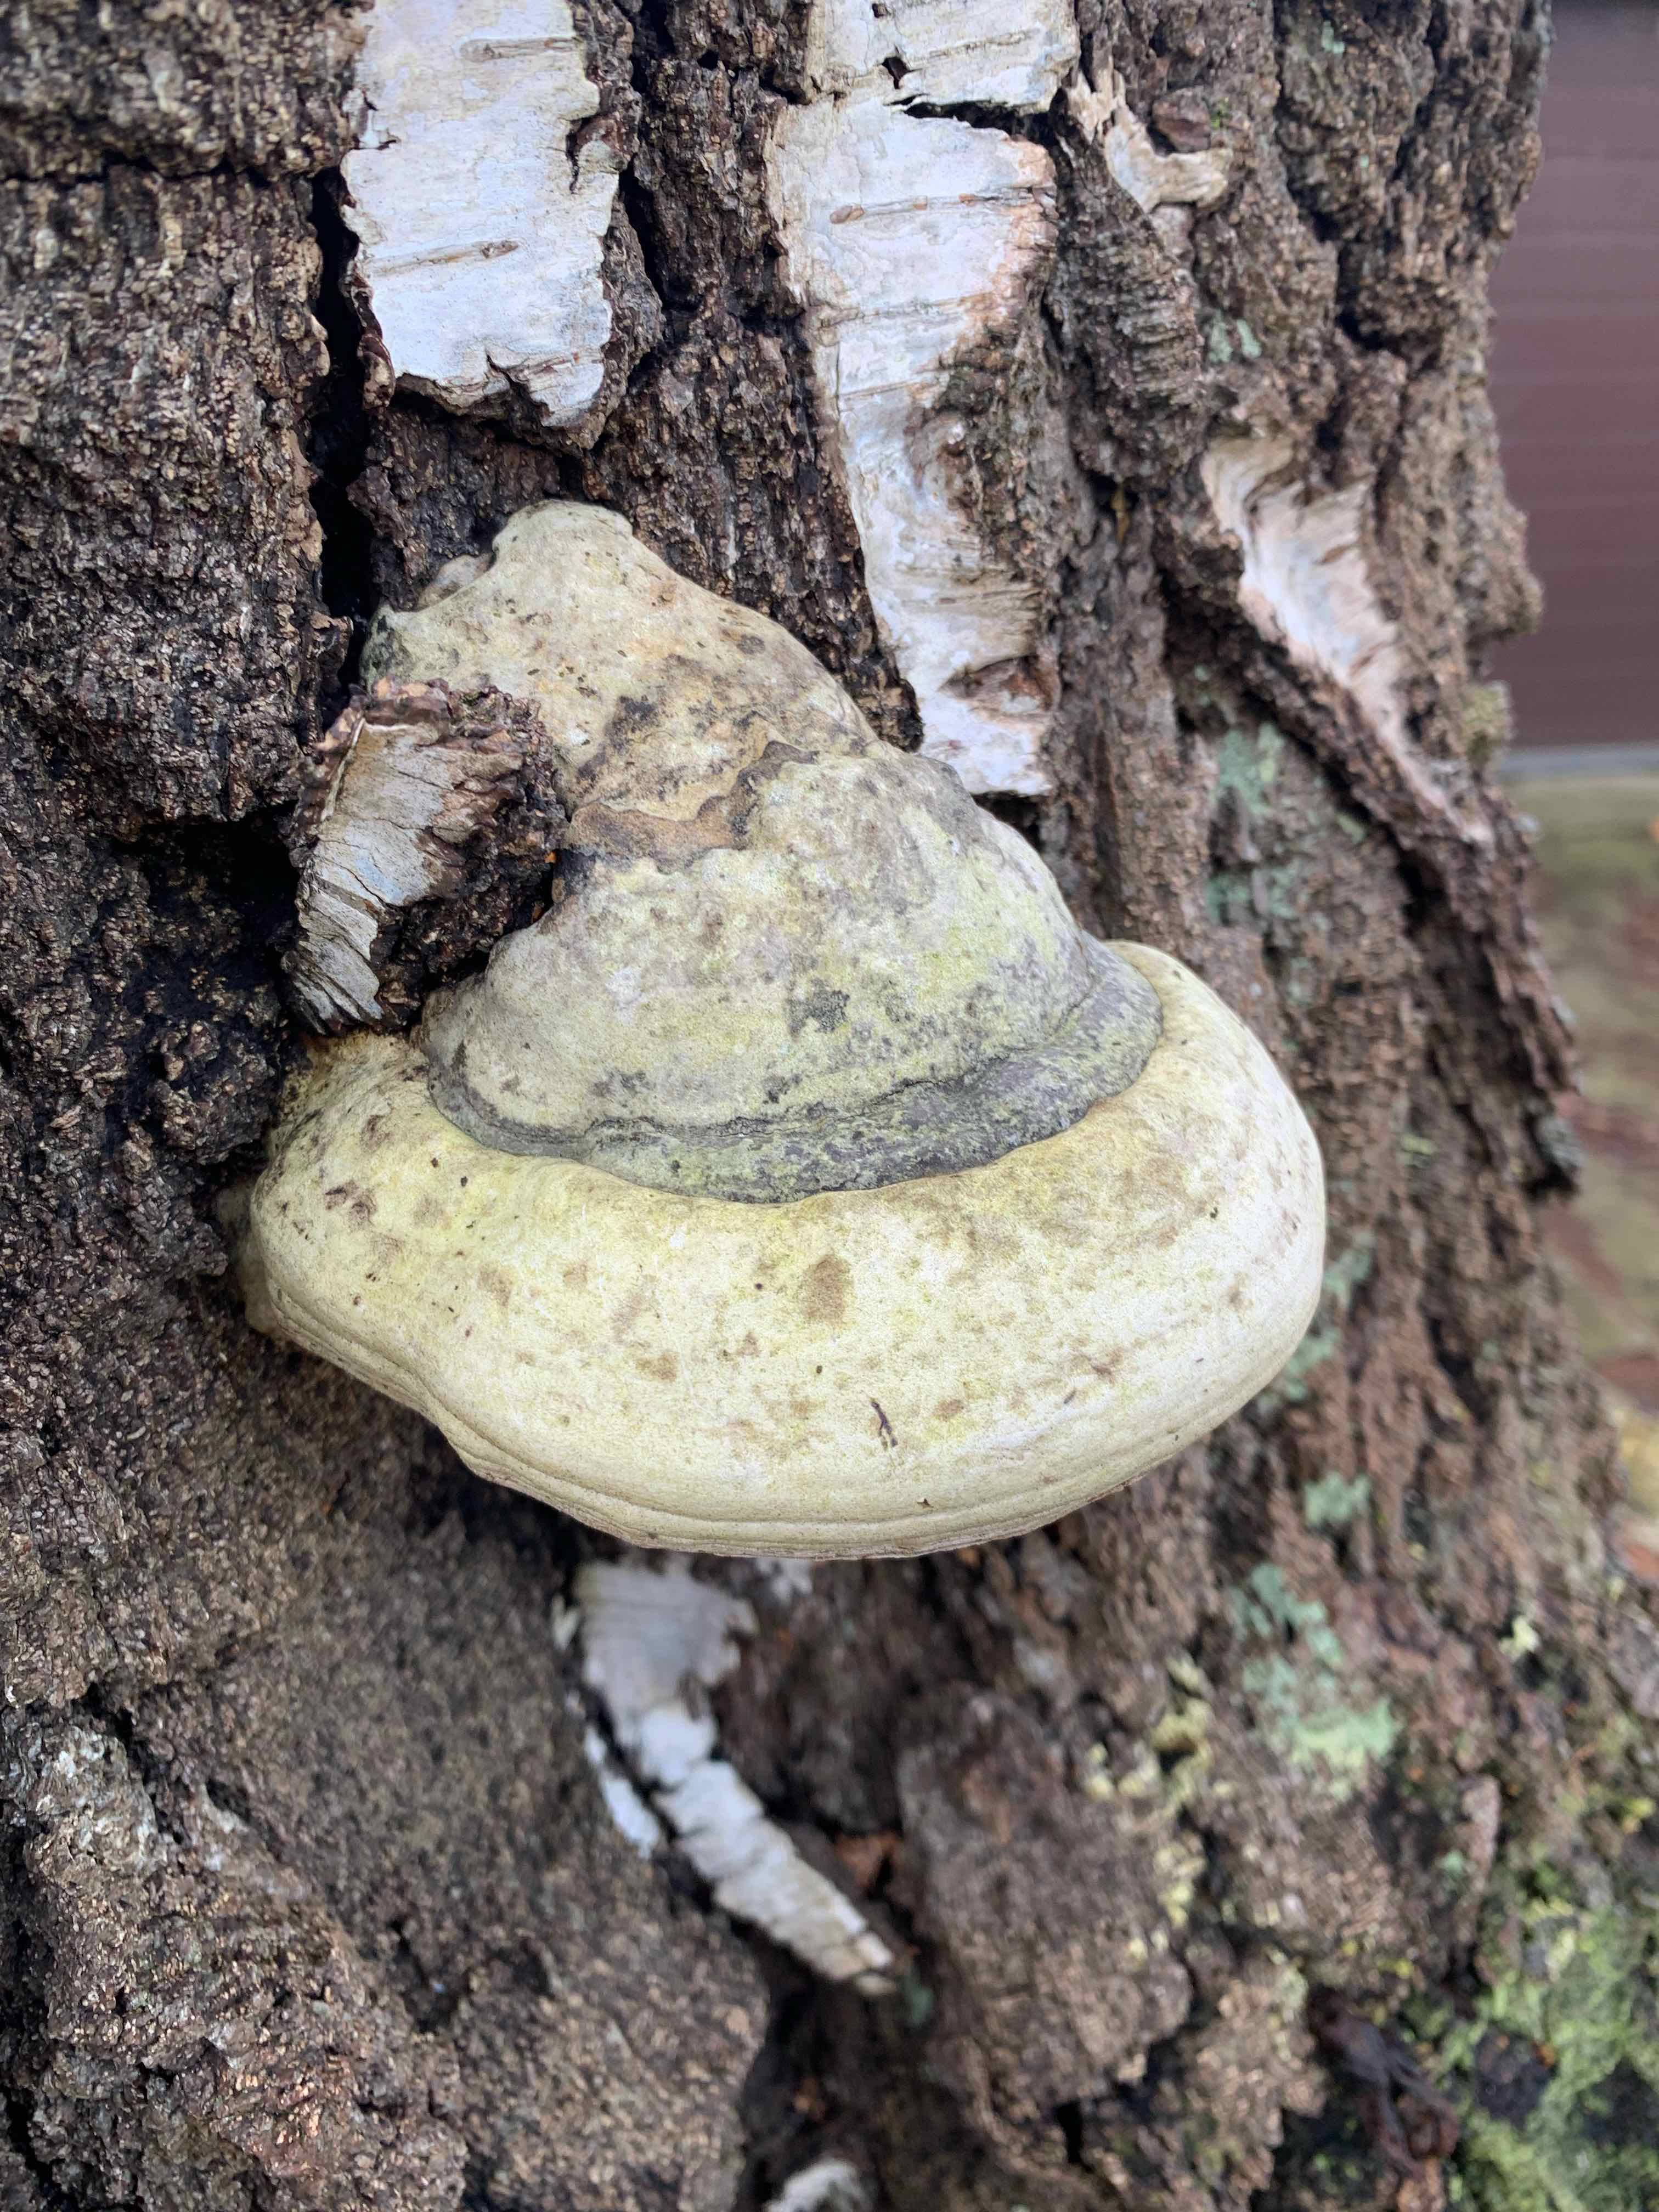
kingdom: Fungi
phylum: Basidiomycota
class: Agaricomycetes
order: Polyporales
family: Polyporaceae
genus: Fomes
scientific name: Fomes fomentarius
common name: tøndersvamp
